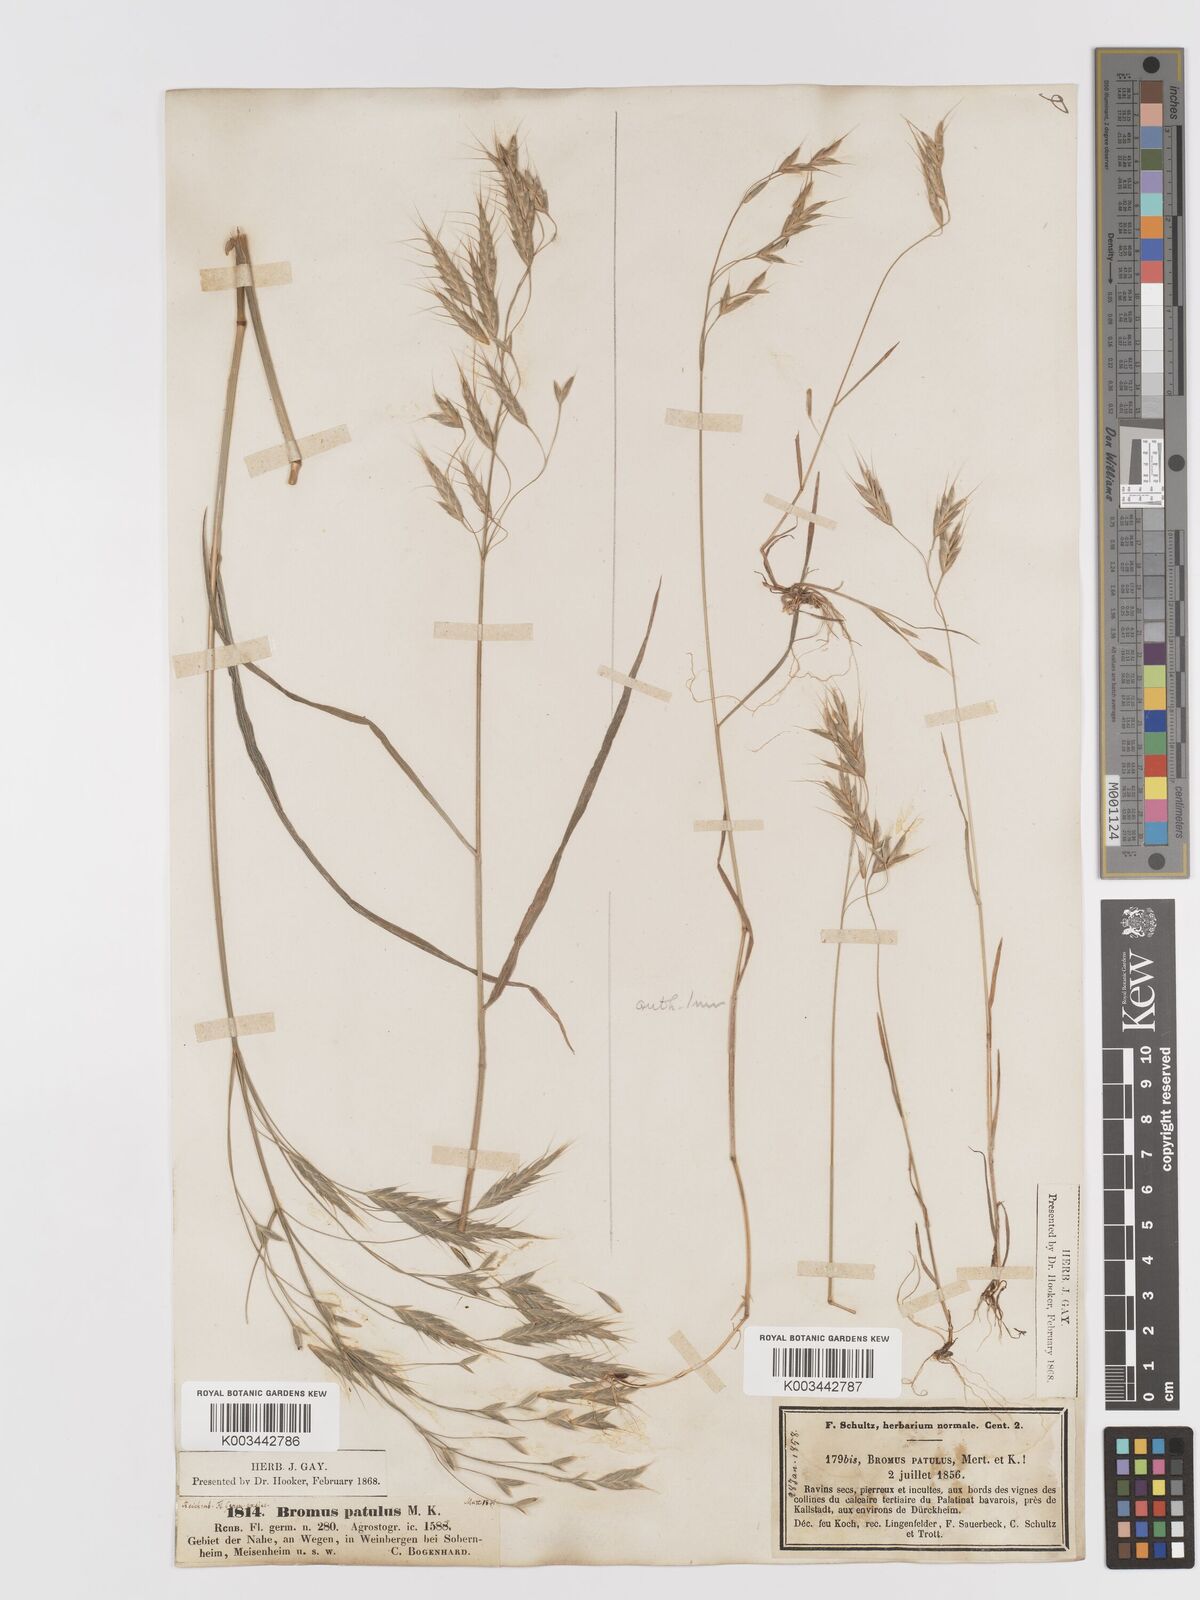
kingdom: Plantae
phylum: Tracheophyta
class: Liliopsida
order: Poales
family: Poaceae
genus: Bromus
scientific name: Bromus japonicus
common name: Japanese brome
